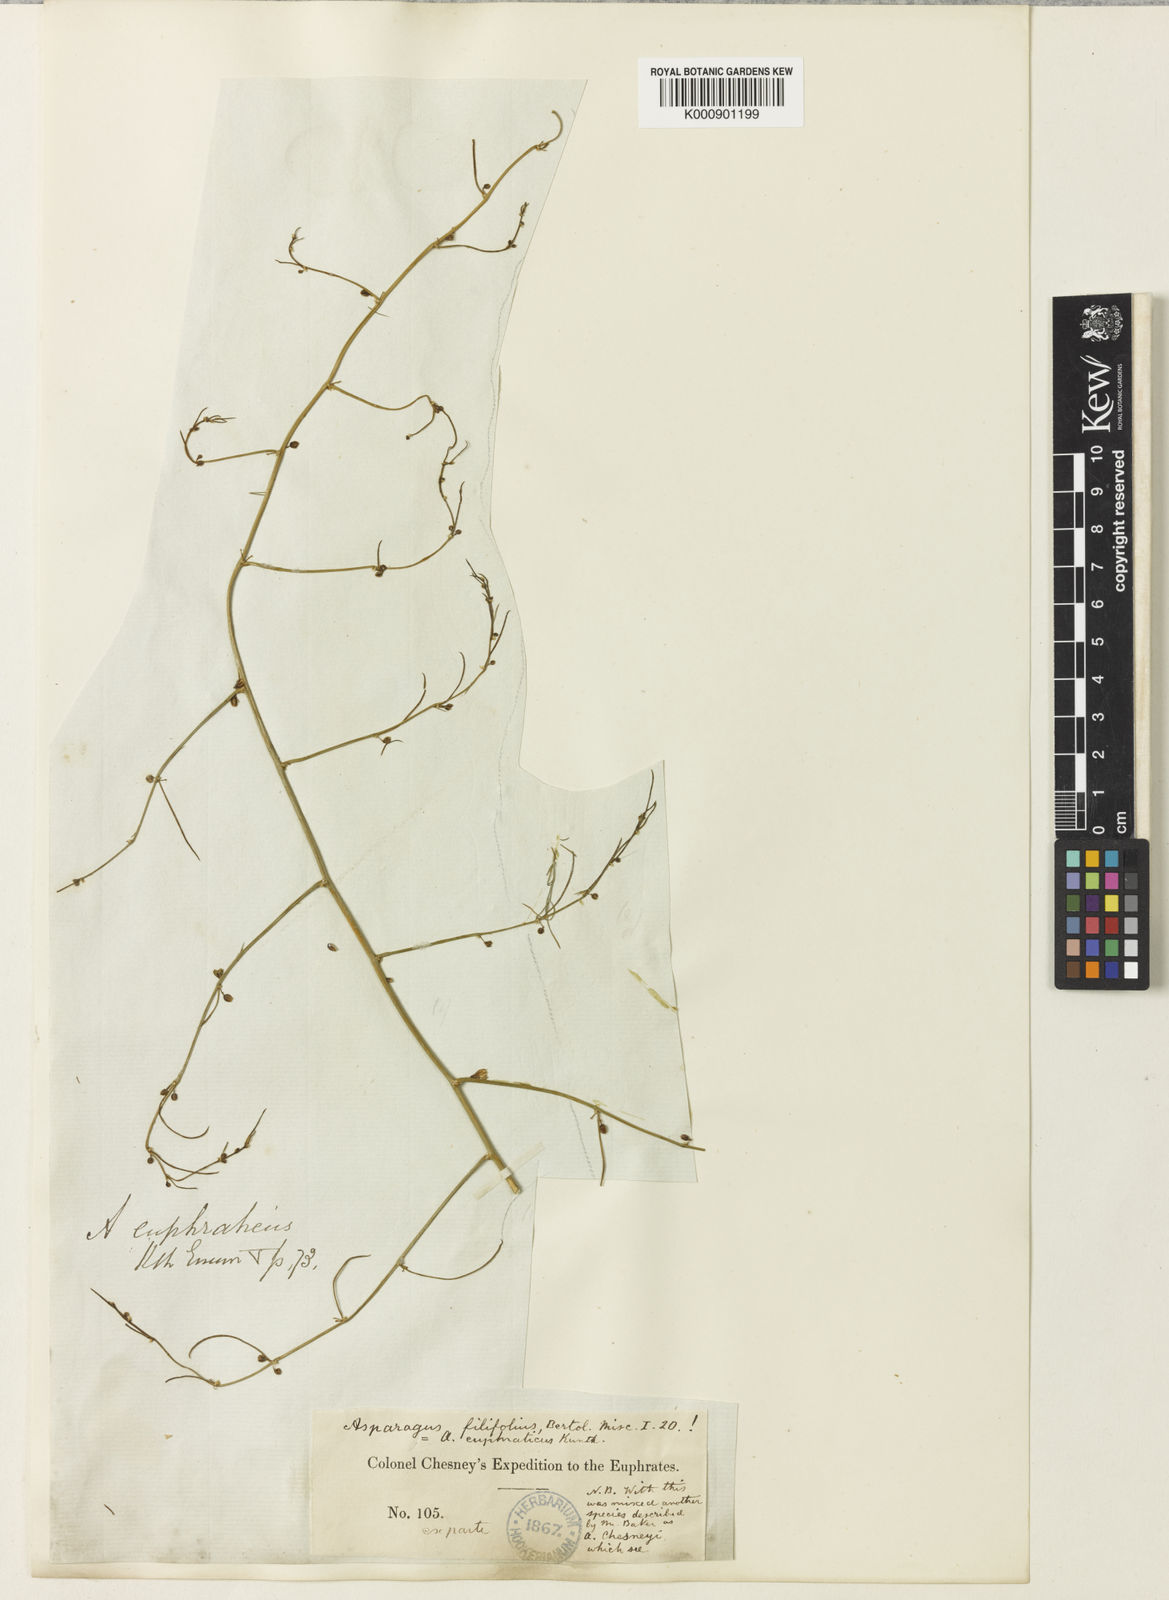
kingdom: Plantae
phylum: Tracheophyta
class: Liliopsida
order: Asparagales
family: Asparagaceae
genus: Asparagus
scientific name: Asparagus filifolius
